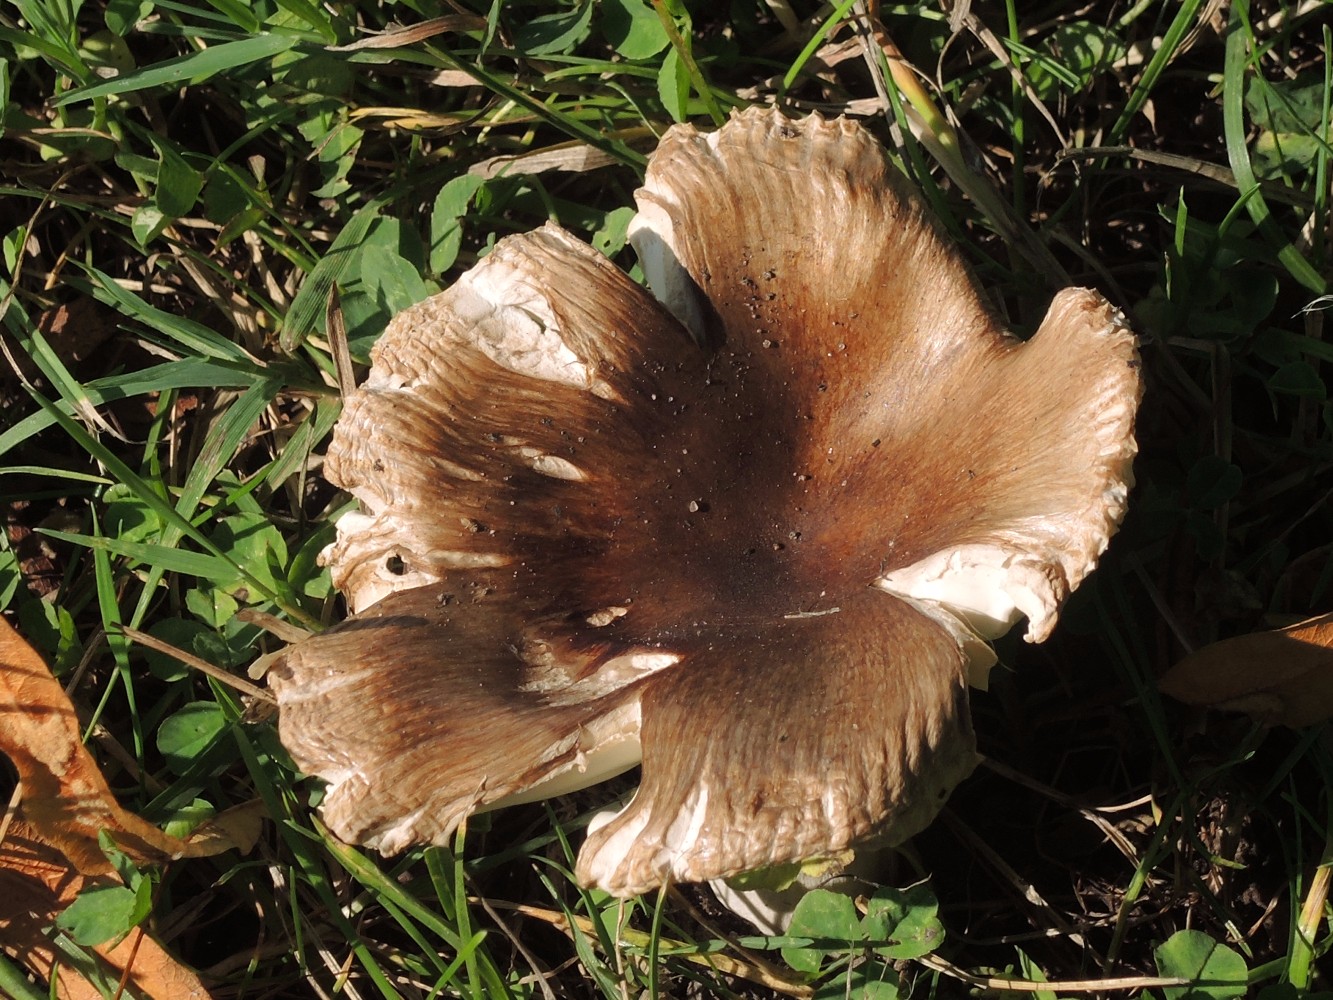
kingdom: Fungi
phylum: Basidiomycota
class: Agaricomycetes
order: Russulales
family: Russulaceae
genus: Russula
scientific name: Russula recondita
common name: mild kam-skørhat
